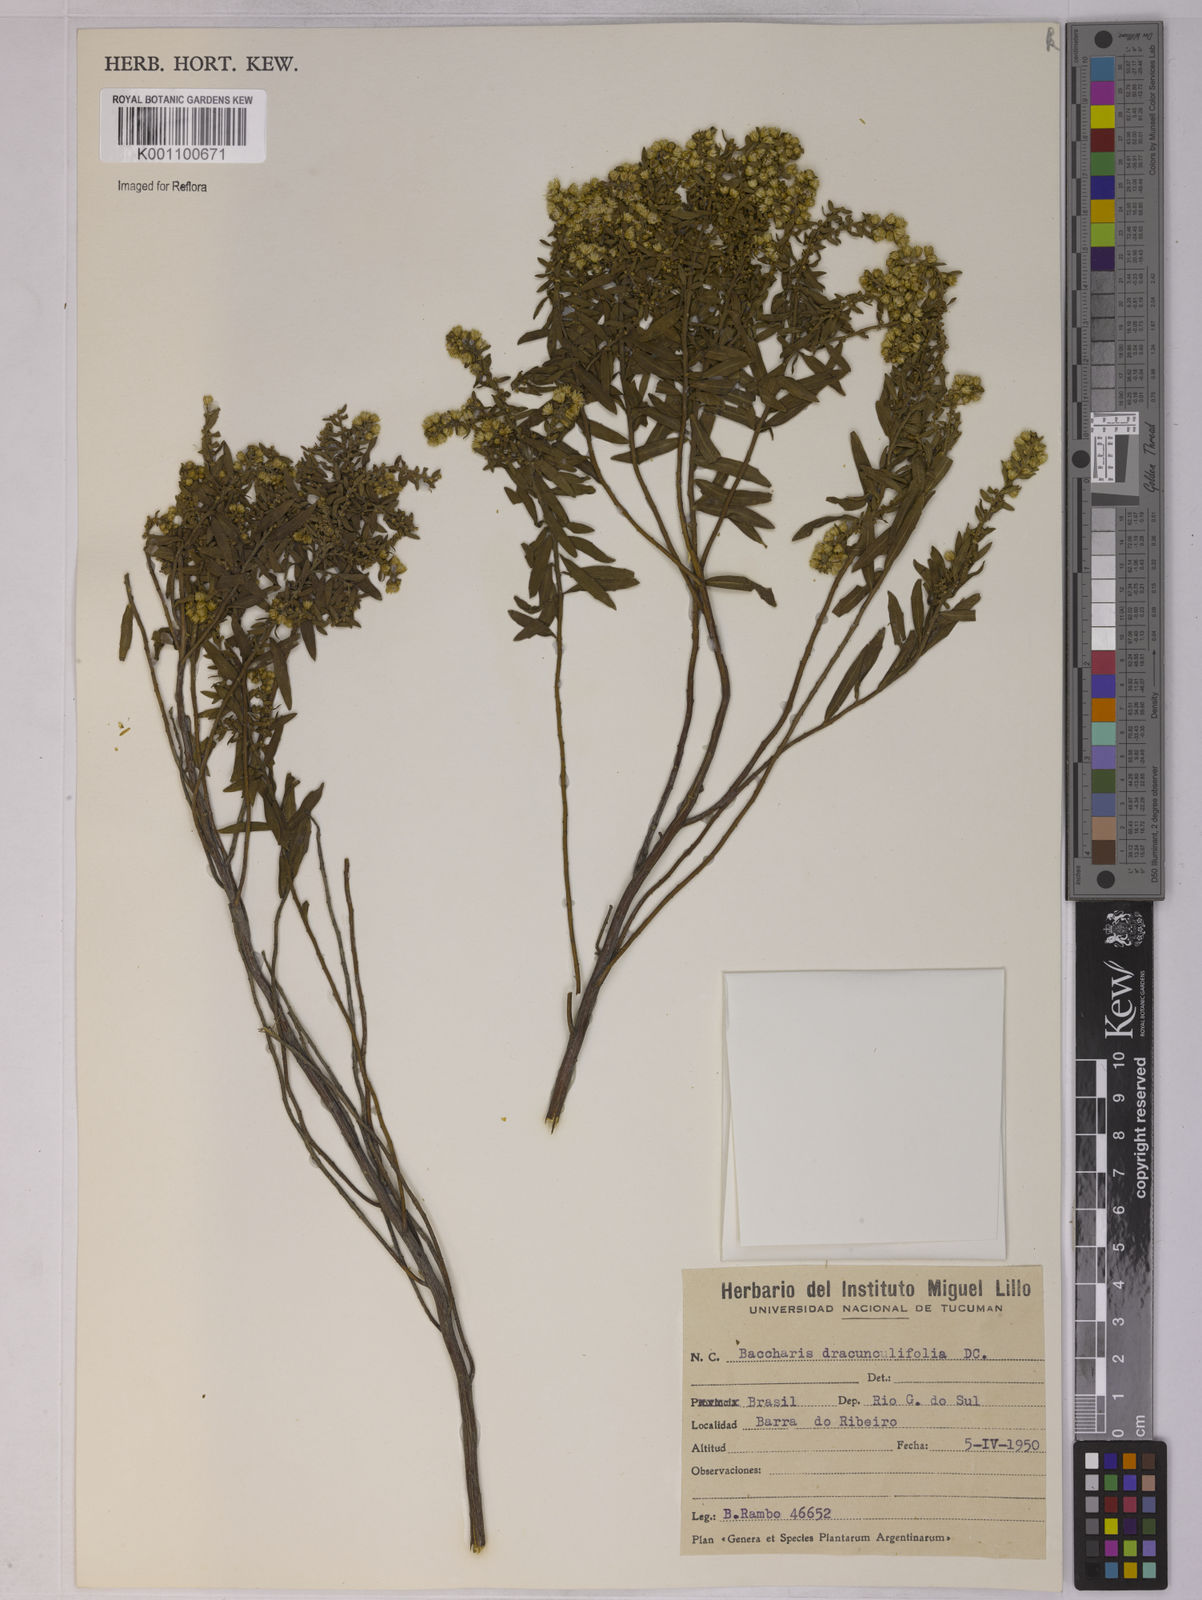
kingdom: Plantae
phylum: Tracheophyta
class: Magnoliopsida
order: Asterales
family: Asteraceae
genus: Baccharis
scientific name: Baccharis dracunculifolia
